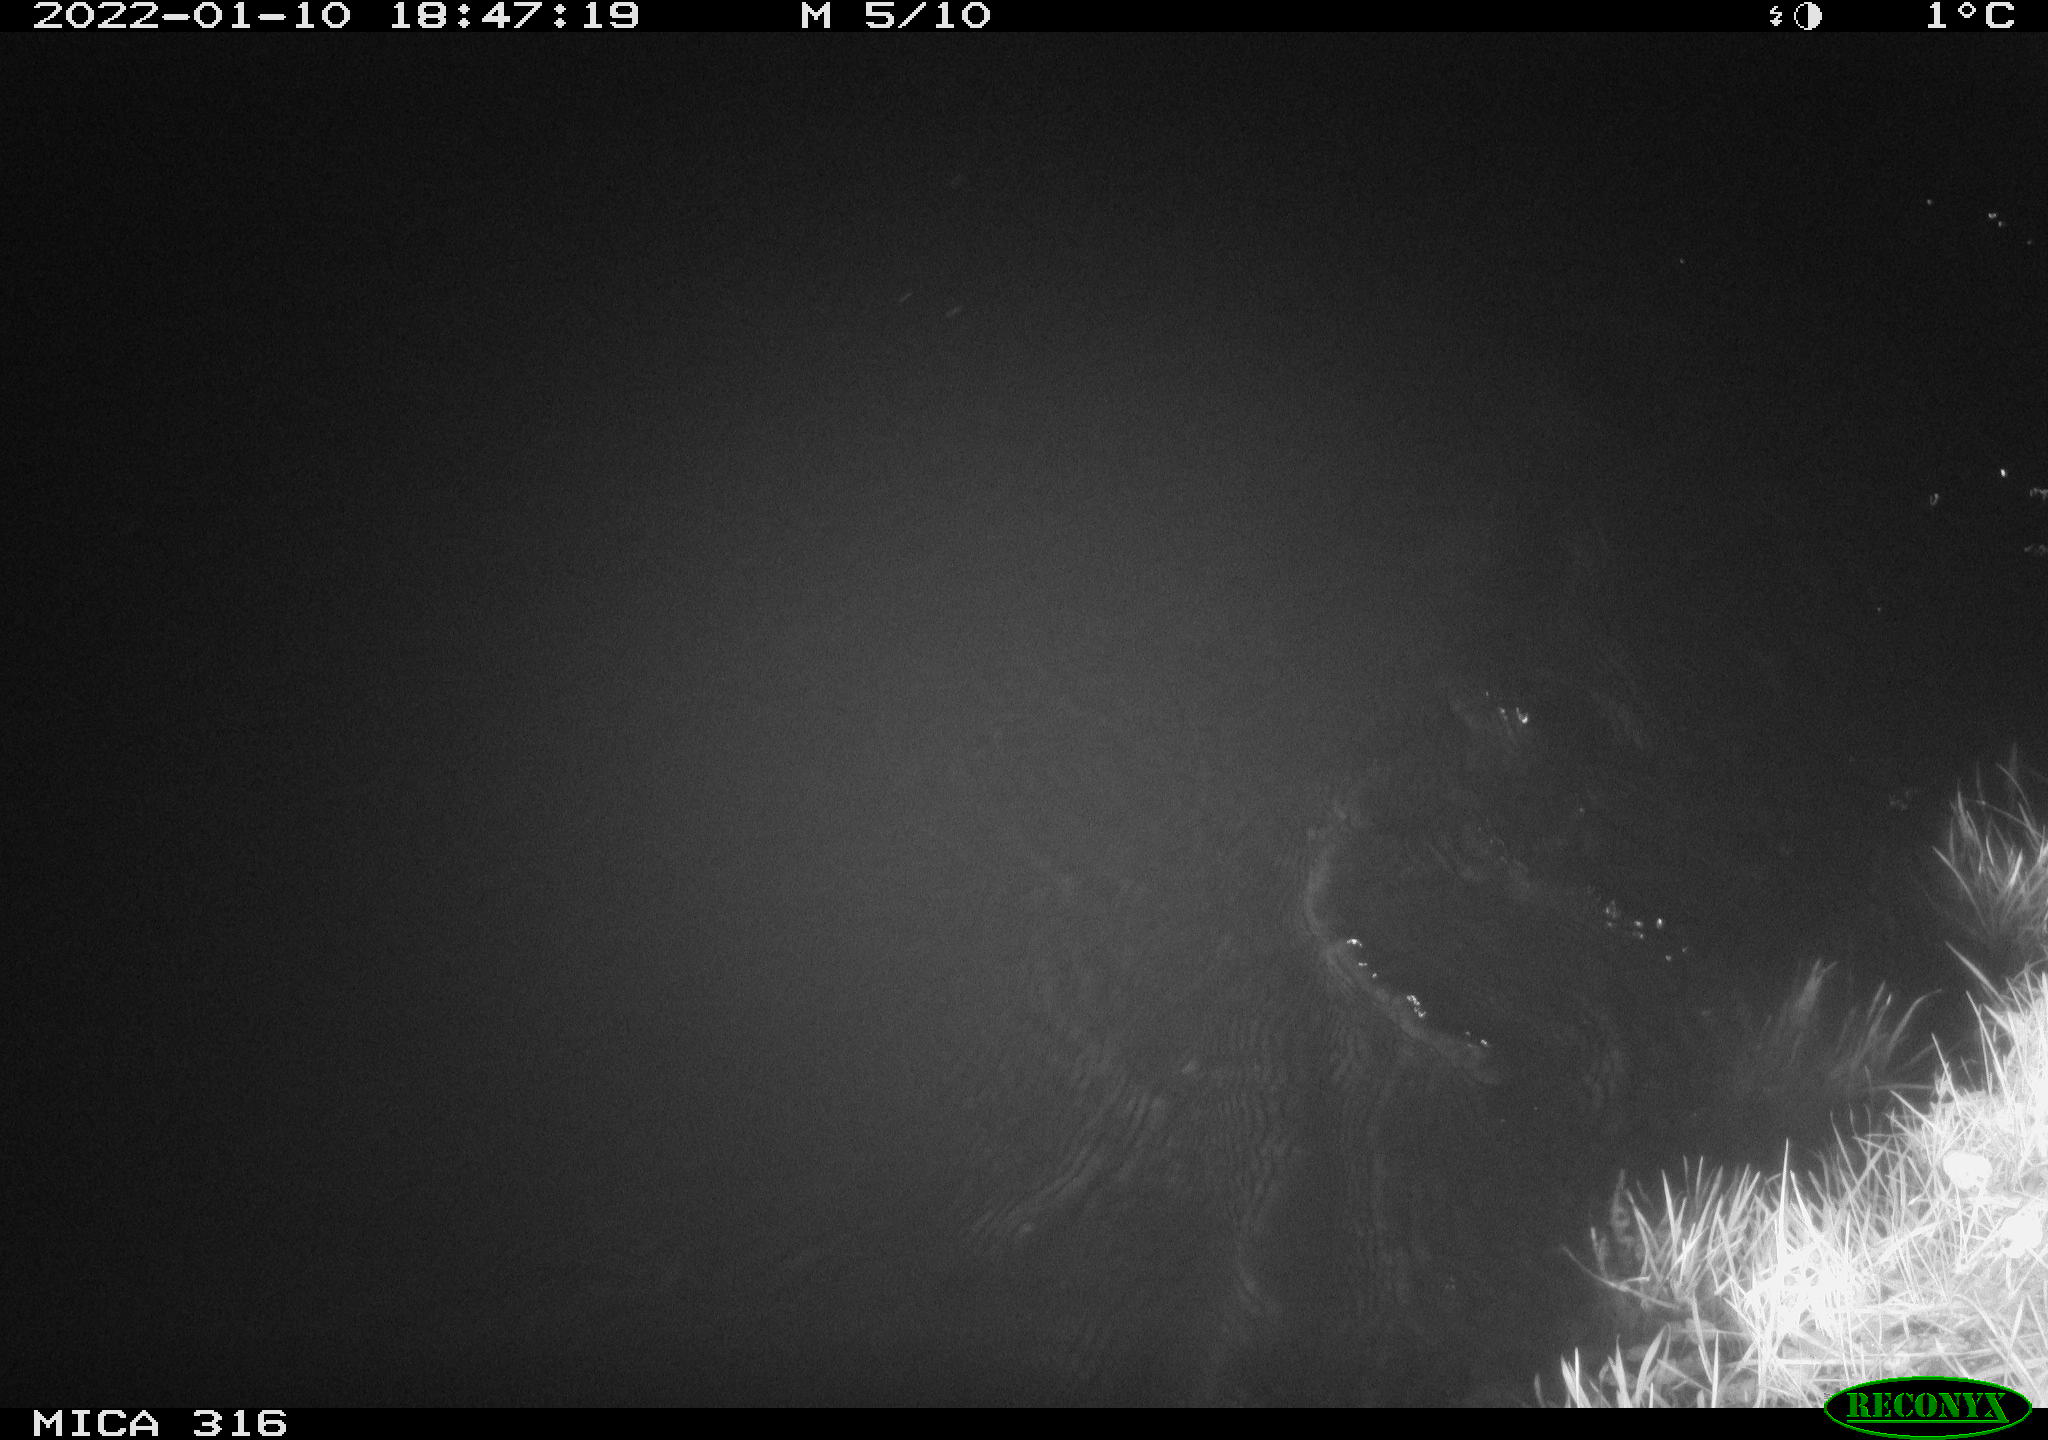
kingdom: Animalia
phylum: Chordata
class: Mammalia
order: Rodentia
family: Muridae
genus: Rattus
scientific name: Rattus norvegicus
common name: Brown rat
